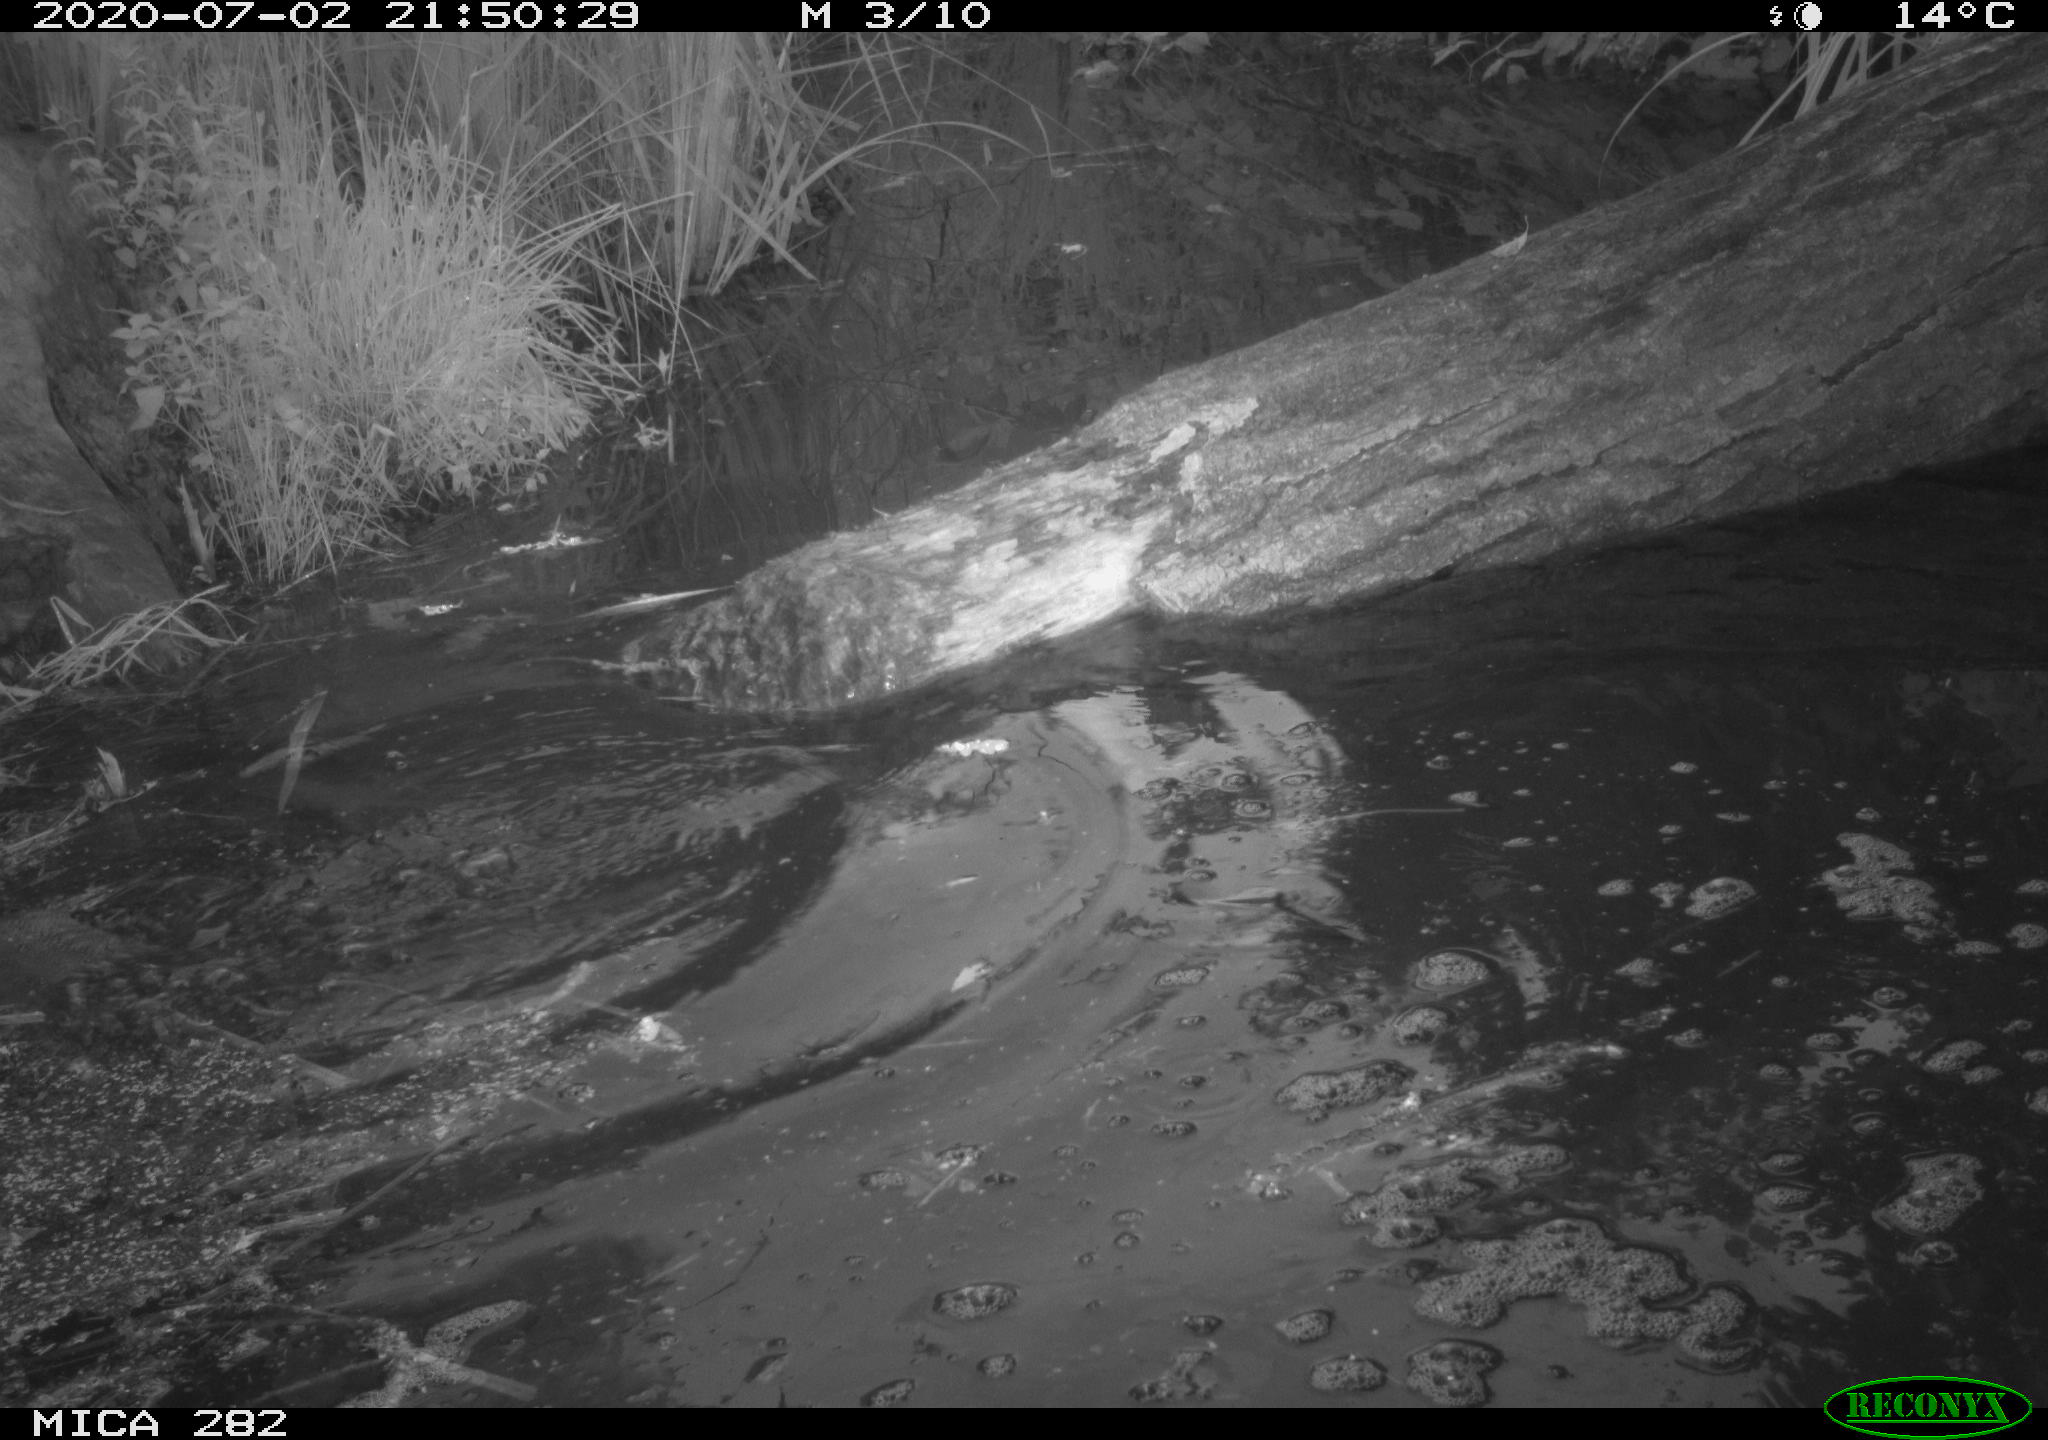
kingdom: Animalia
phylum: Chordata
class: Mammalia
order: Rodentia
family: Castoridae
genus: Castor
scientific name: Castor fiber
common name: Eurasian beaver
